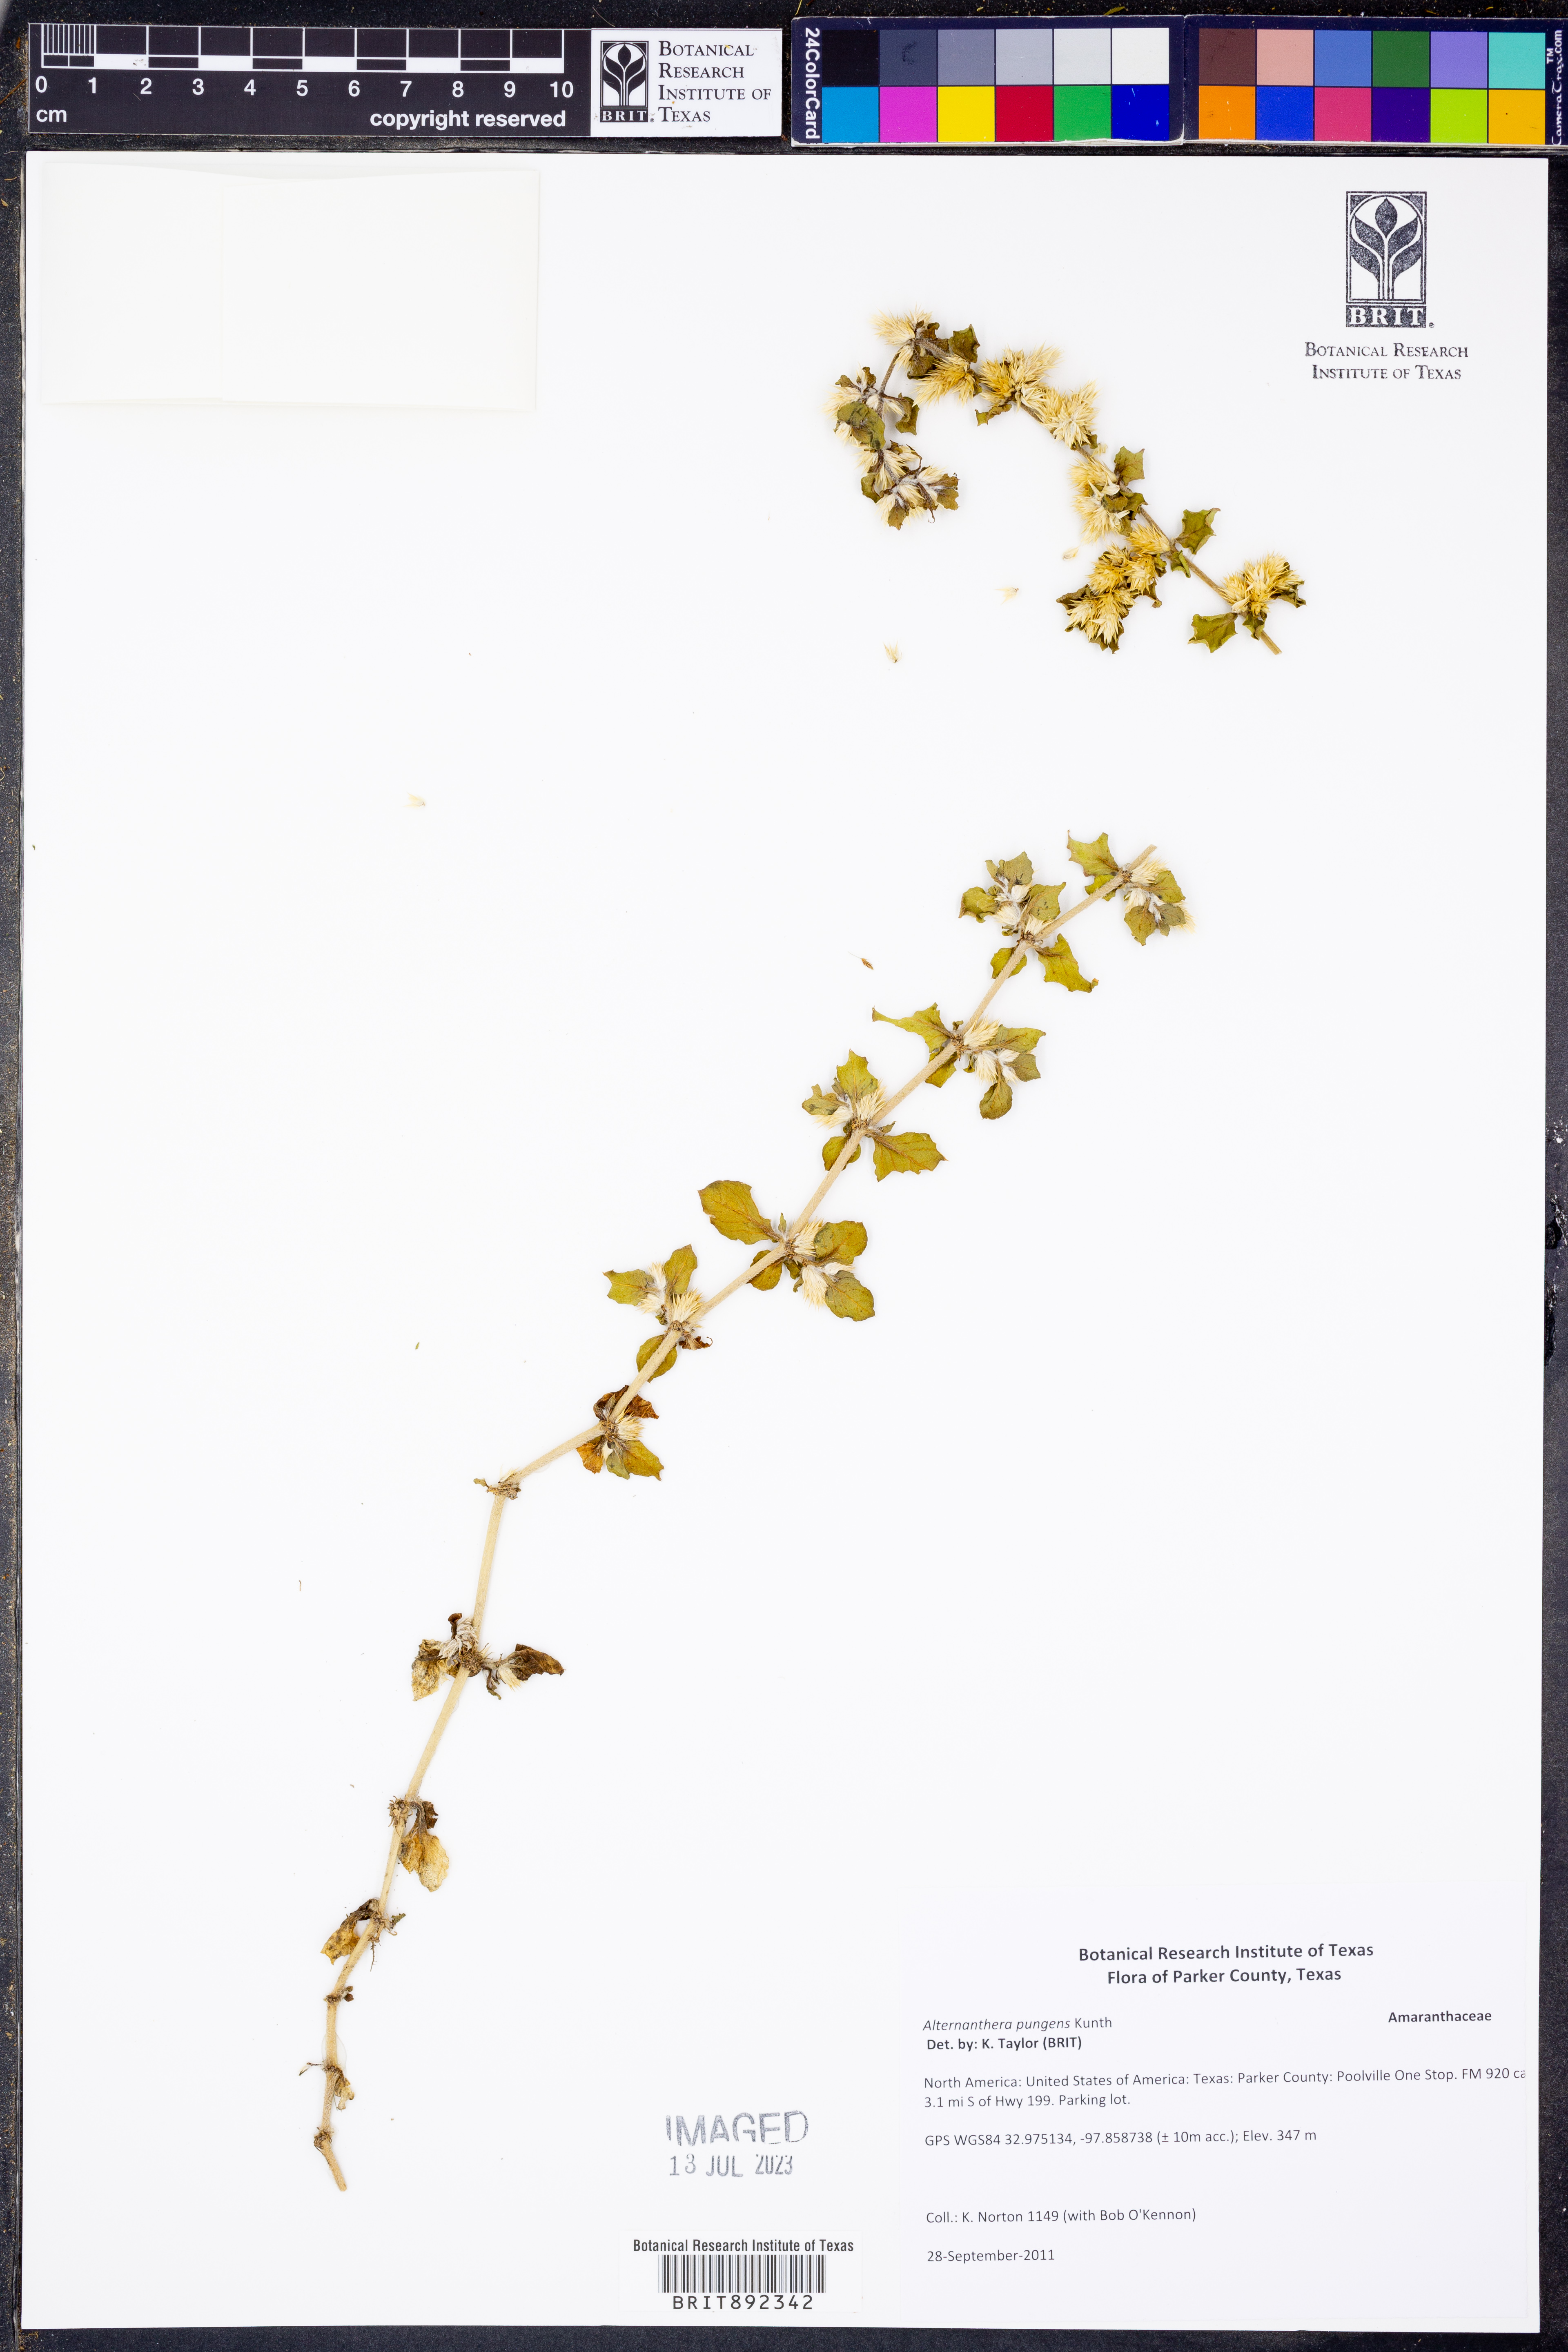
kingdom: Plantae
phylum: Tracheophyta
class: Magnoliopsida
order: Caryophyllales
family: Amaranthaceae
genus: Alternanthera
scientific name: Alternanthera pungens
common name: Khakiweed
